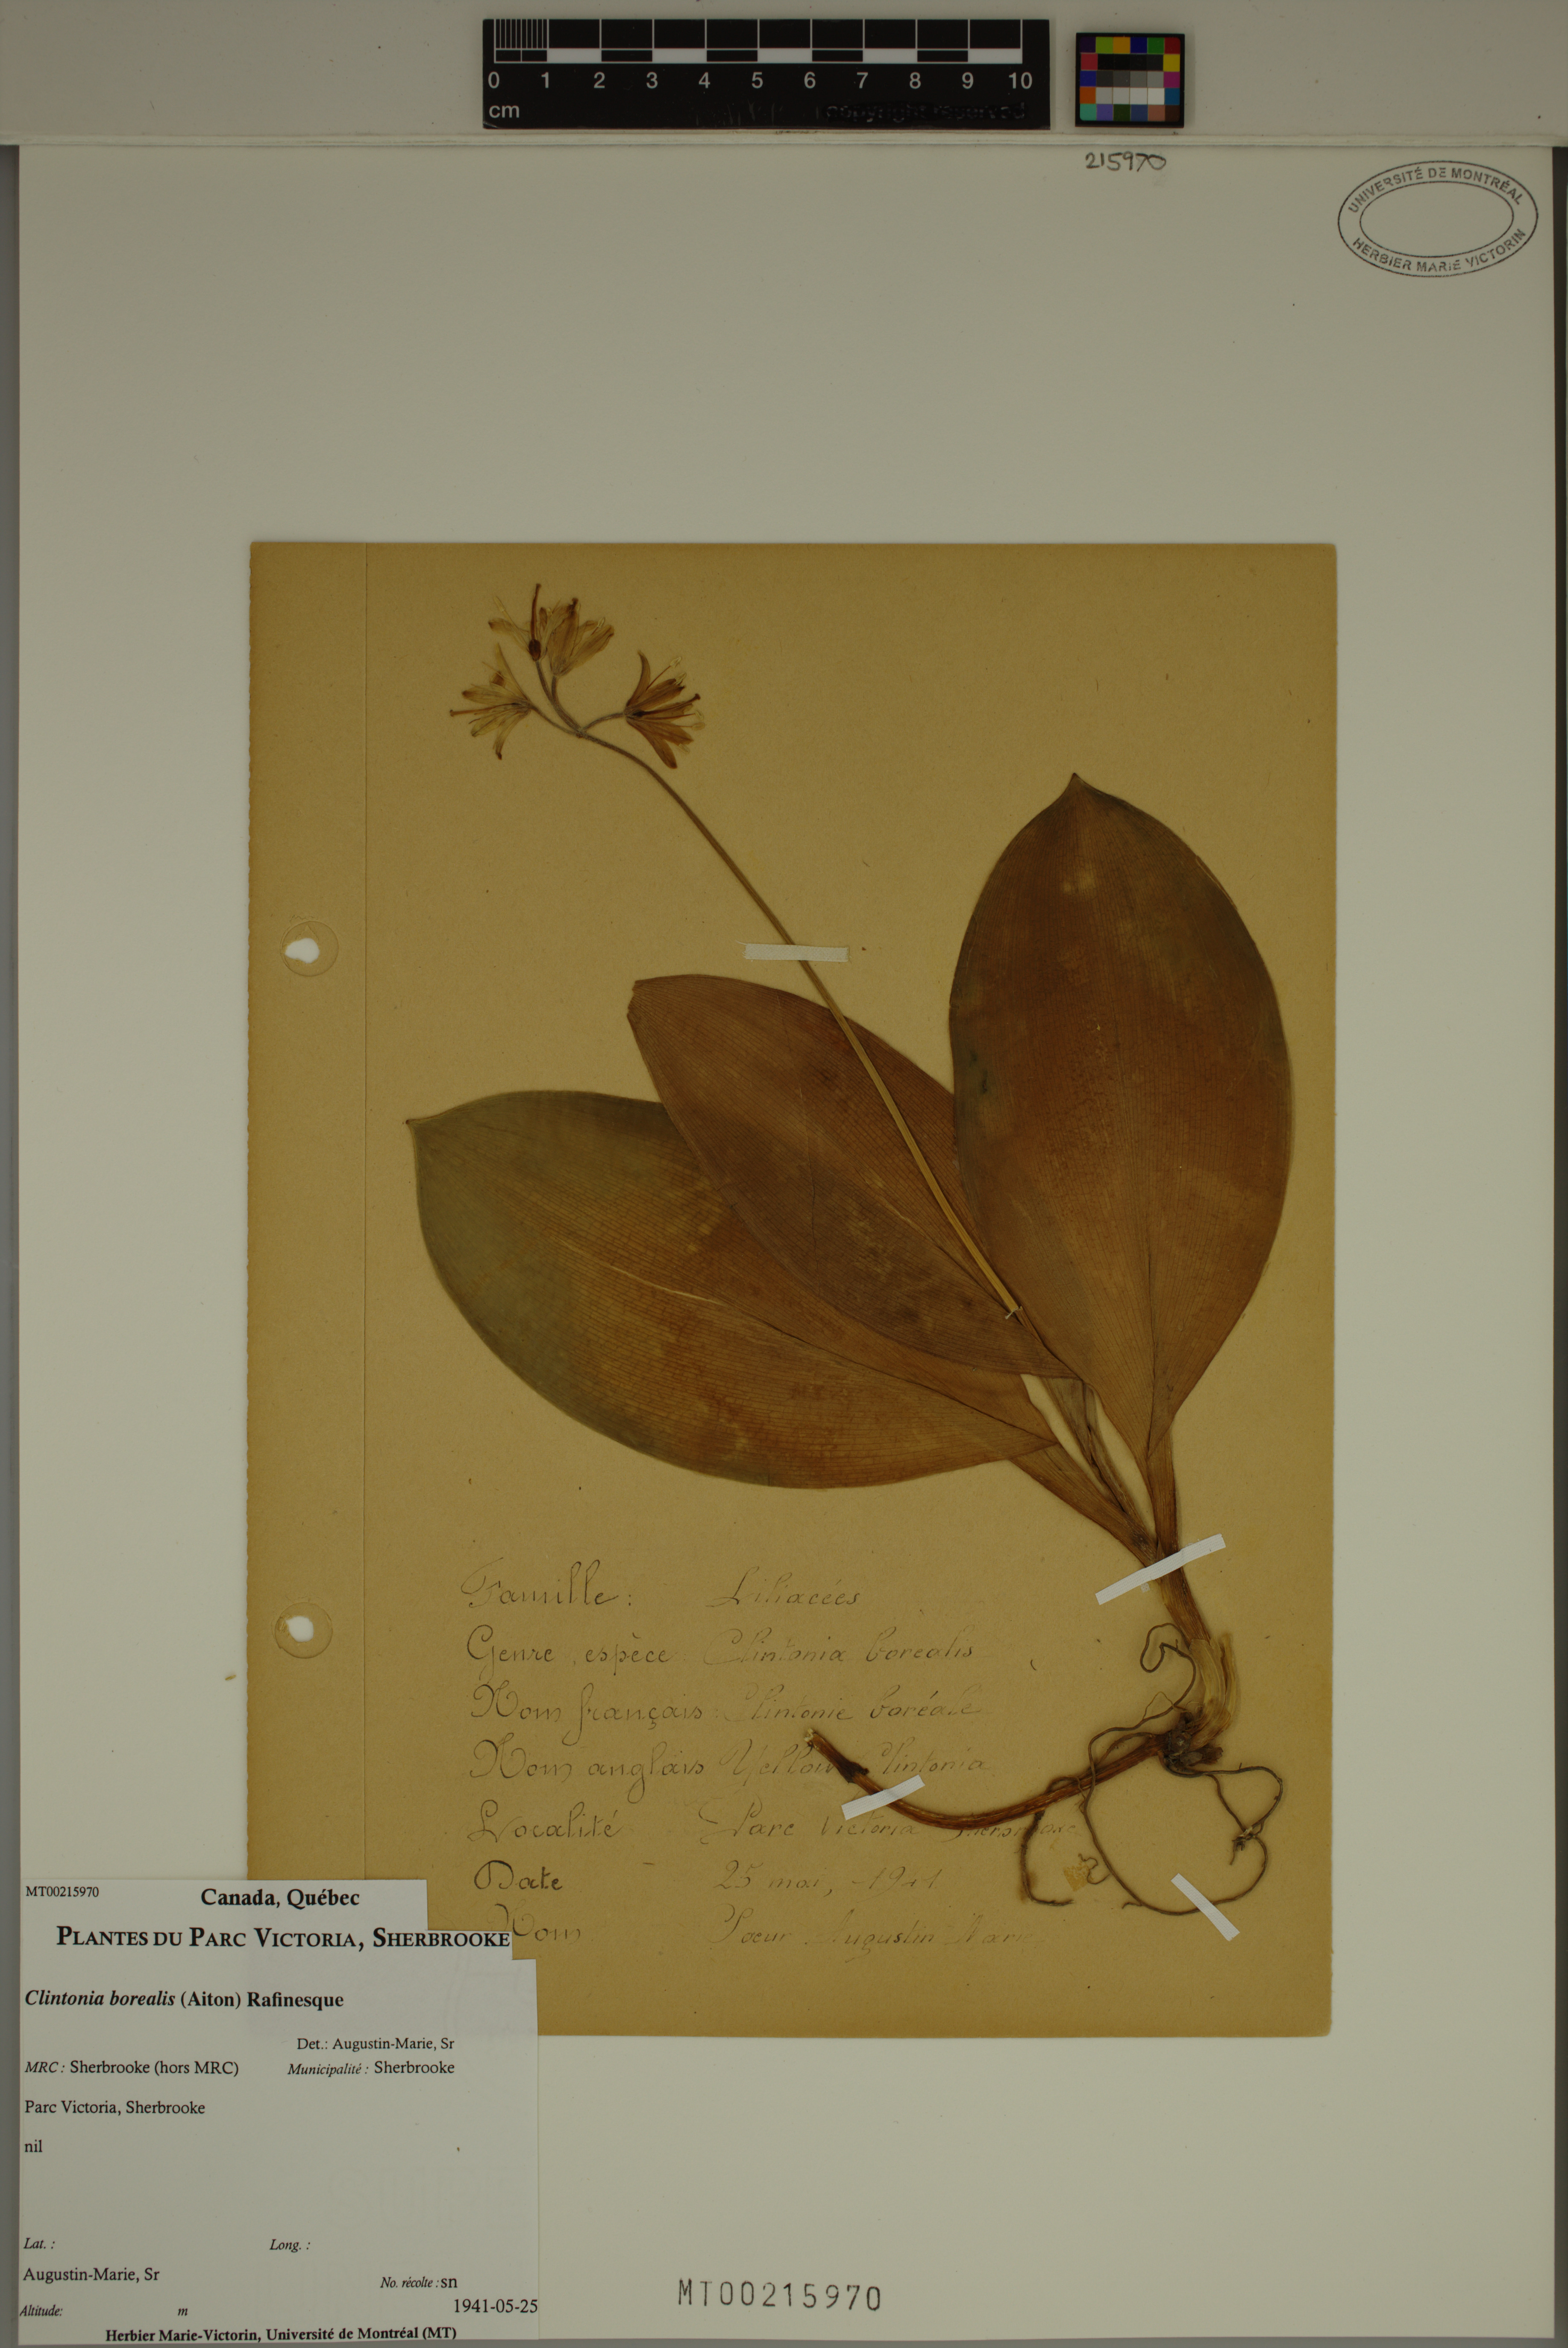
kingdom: Plantae
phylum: Tracheophyta
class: Liliopsida
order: Liliales
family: Liliaceae
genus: Clintonia
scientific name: Clintonia borealis
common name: Yellow clintonia
